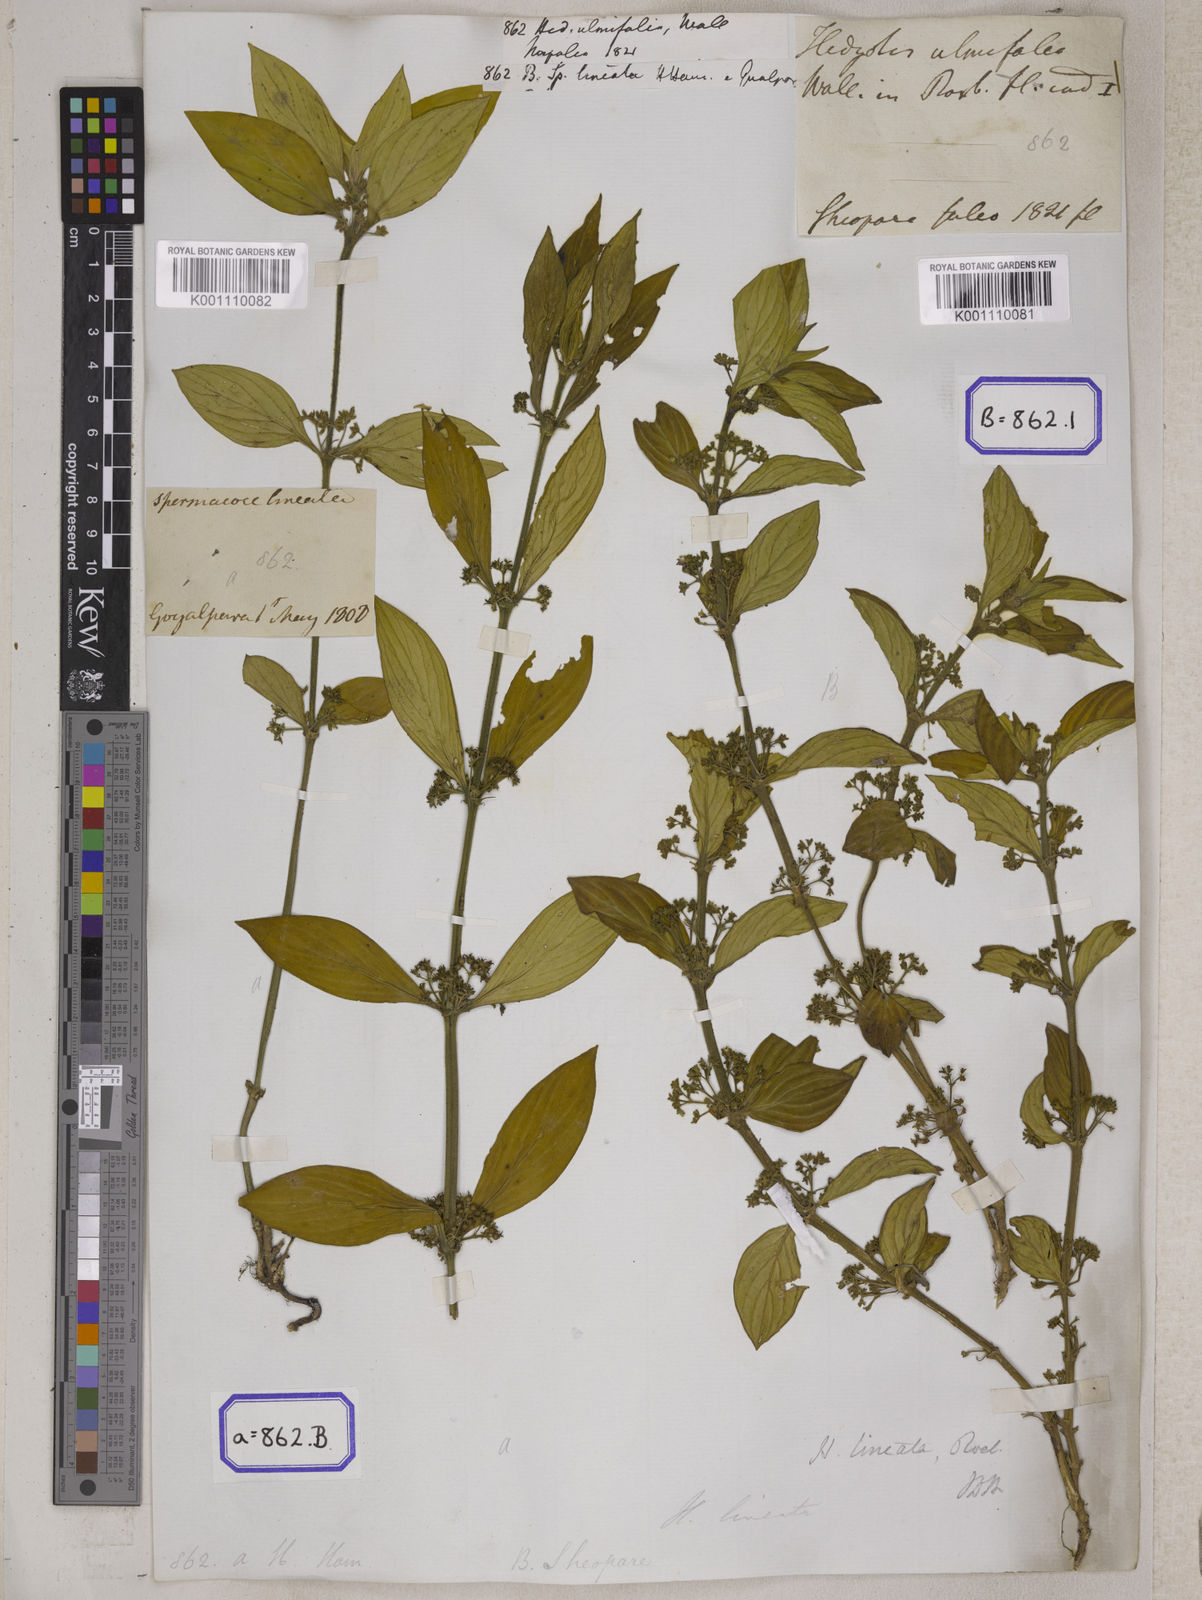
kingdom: Plantae
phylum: Tracheophyta
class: Magnoliopsida
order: Gentianales
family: Rubiaceae
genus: Exallage
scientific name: Exallage ulmifolia
